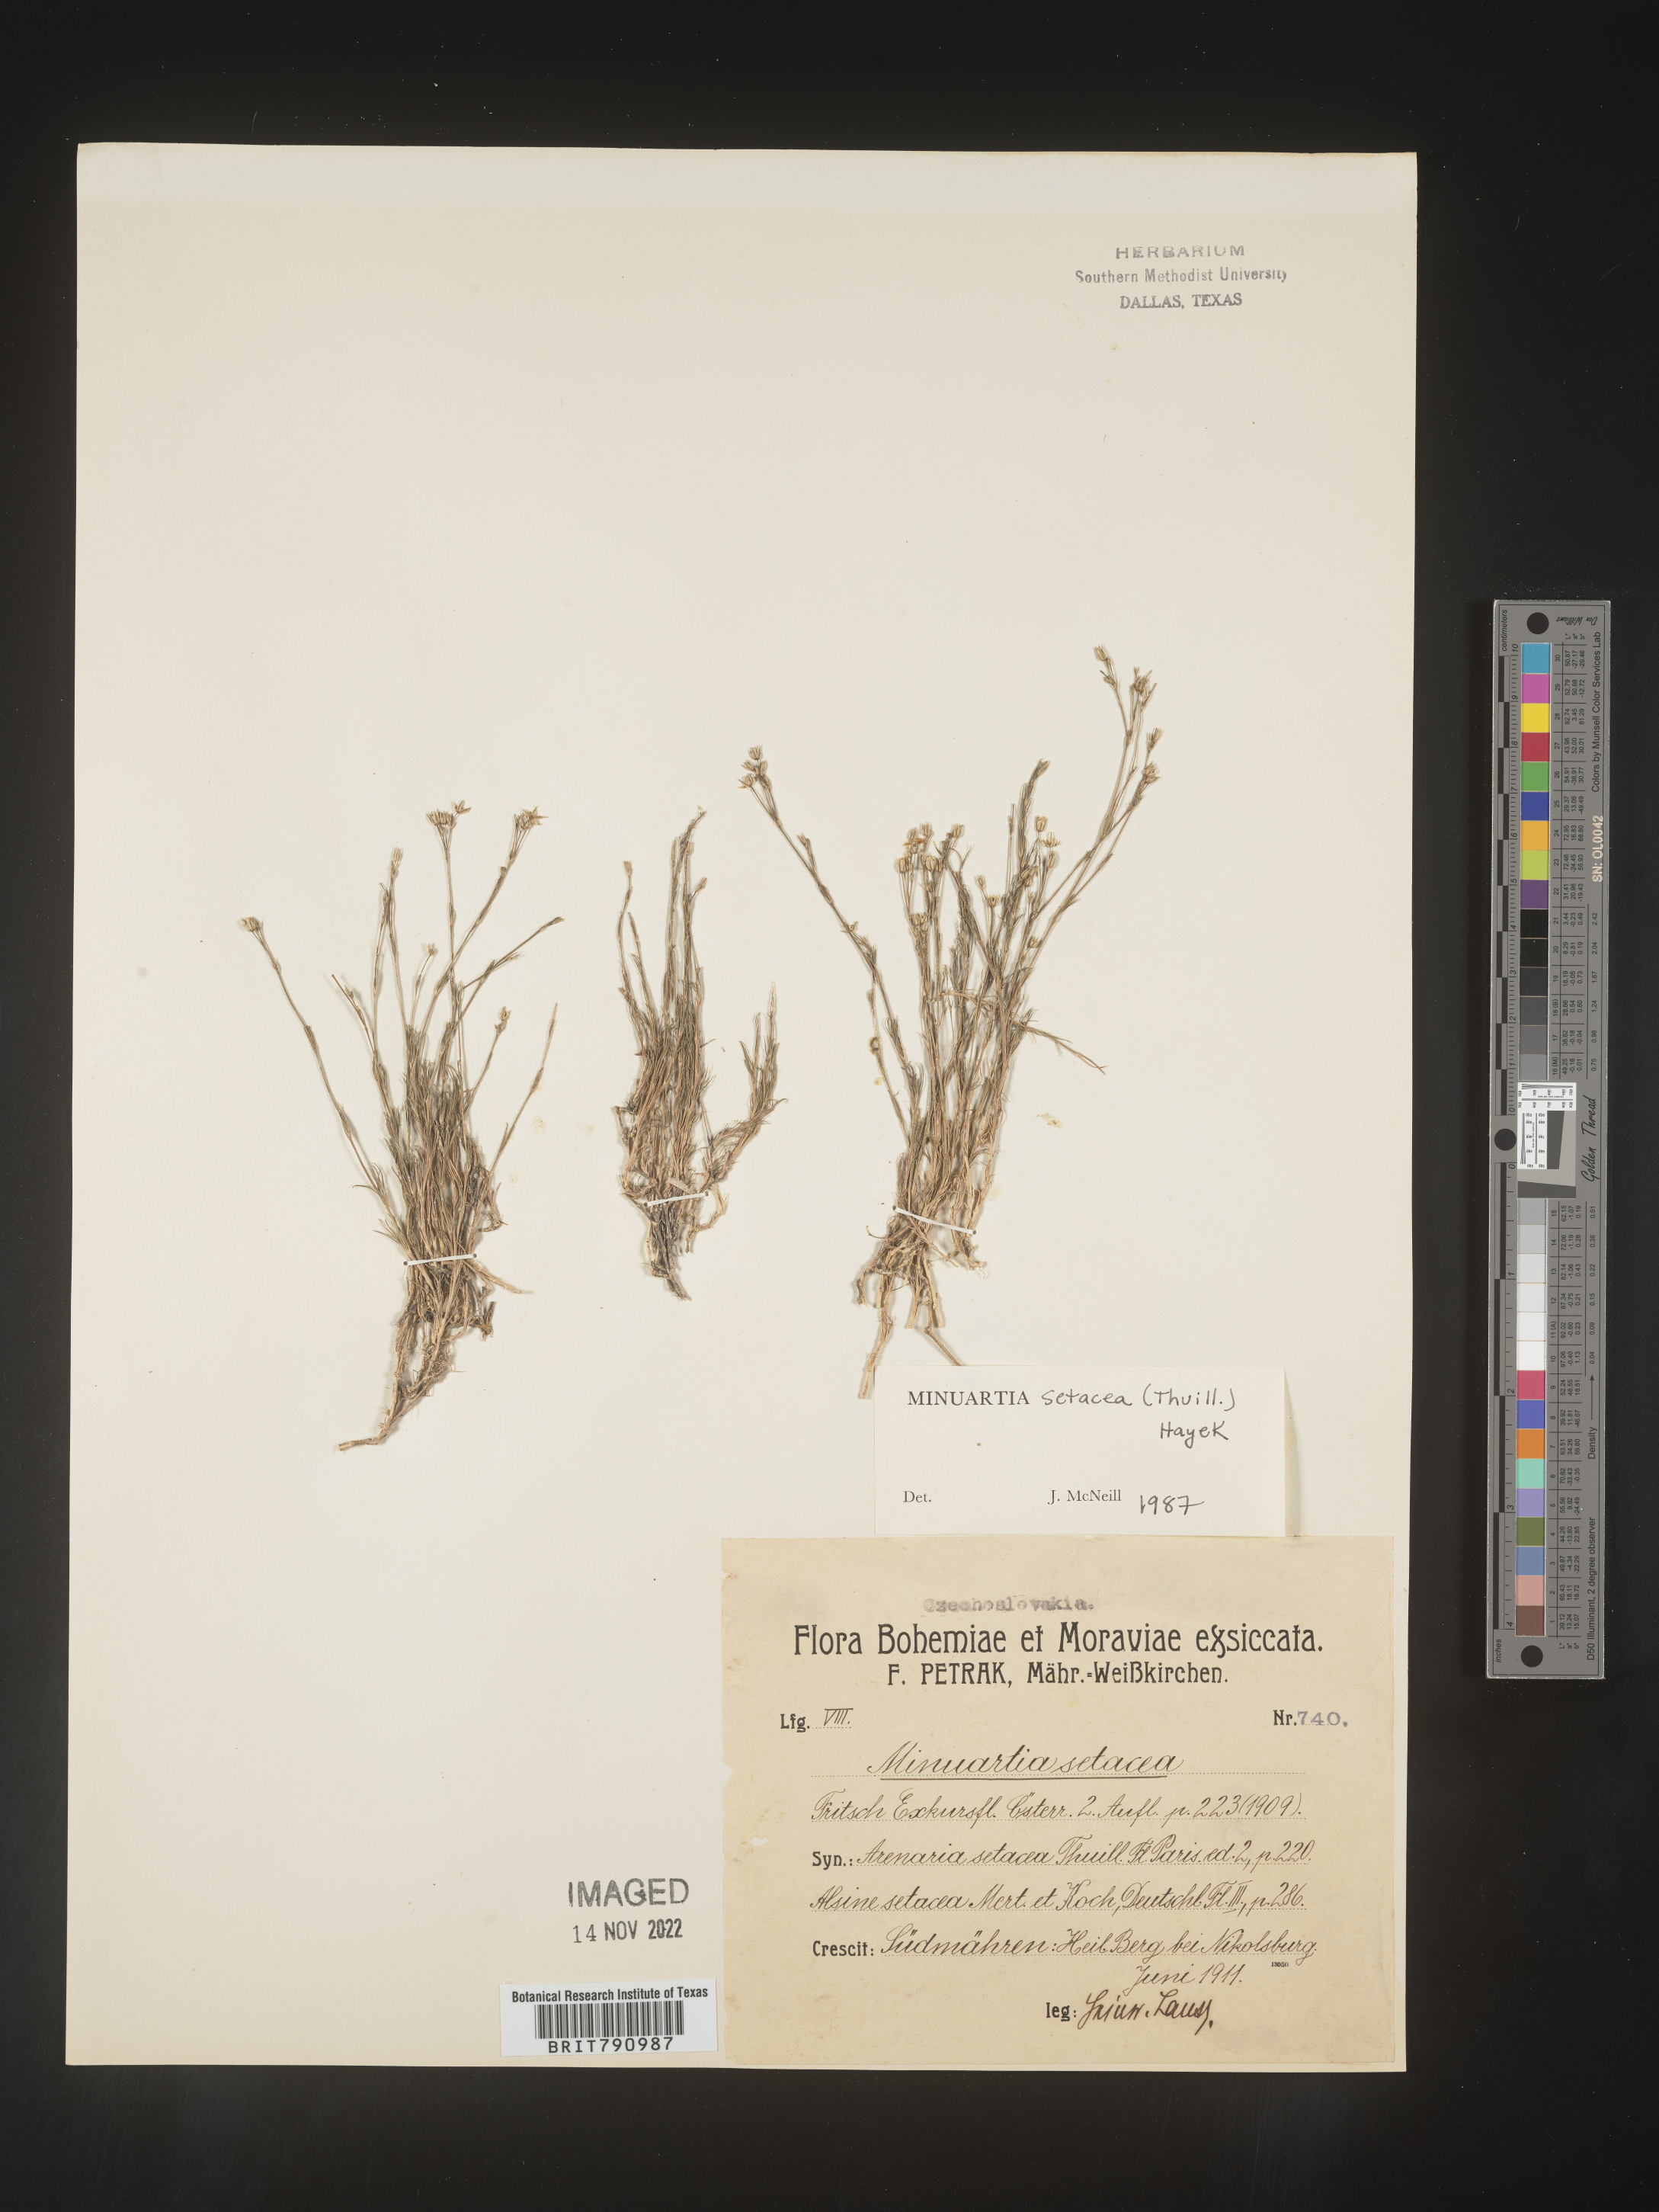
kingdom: Plantae
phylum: Tracheophyta
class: Magnoliopsida
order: Caryophyllales
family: Caryophyllaceae
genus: Minuartia
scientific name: Minuartia
